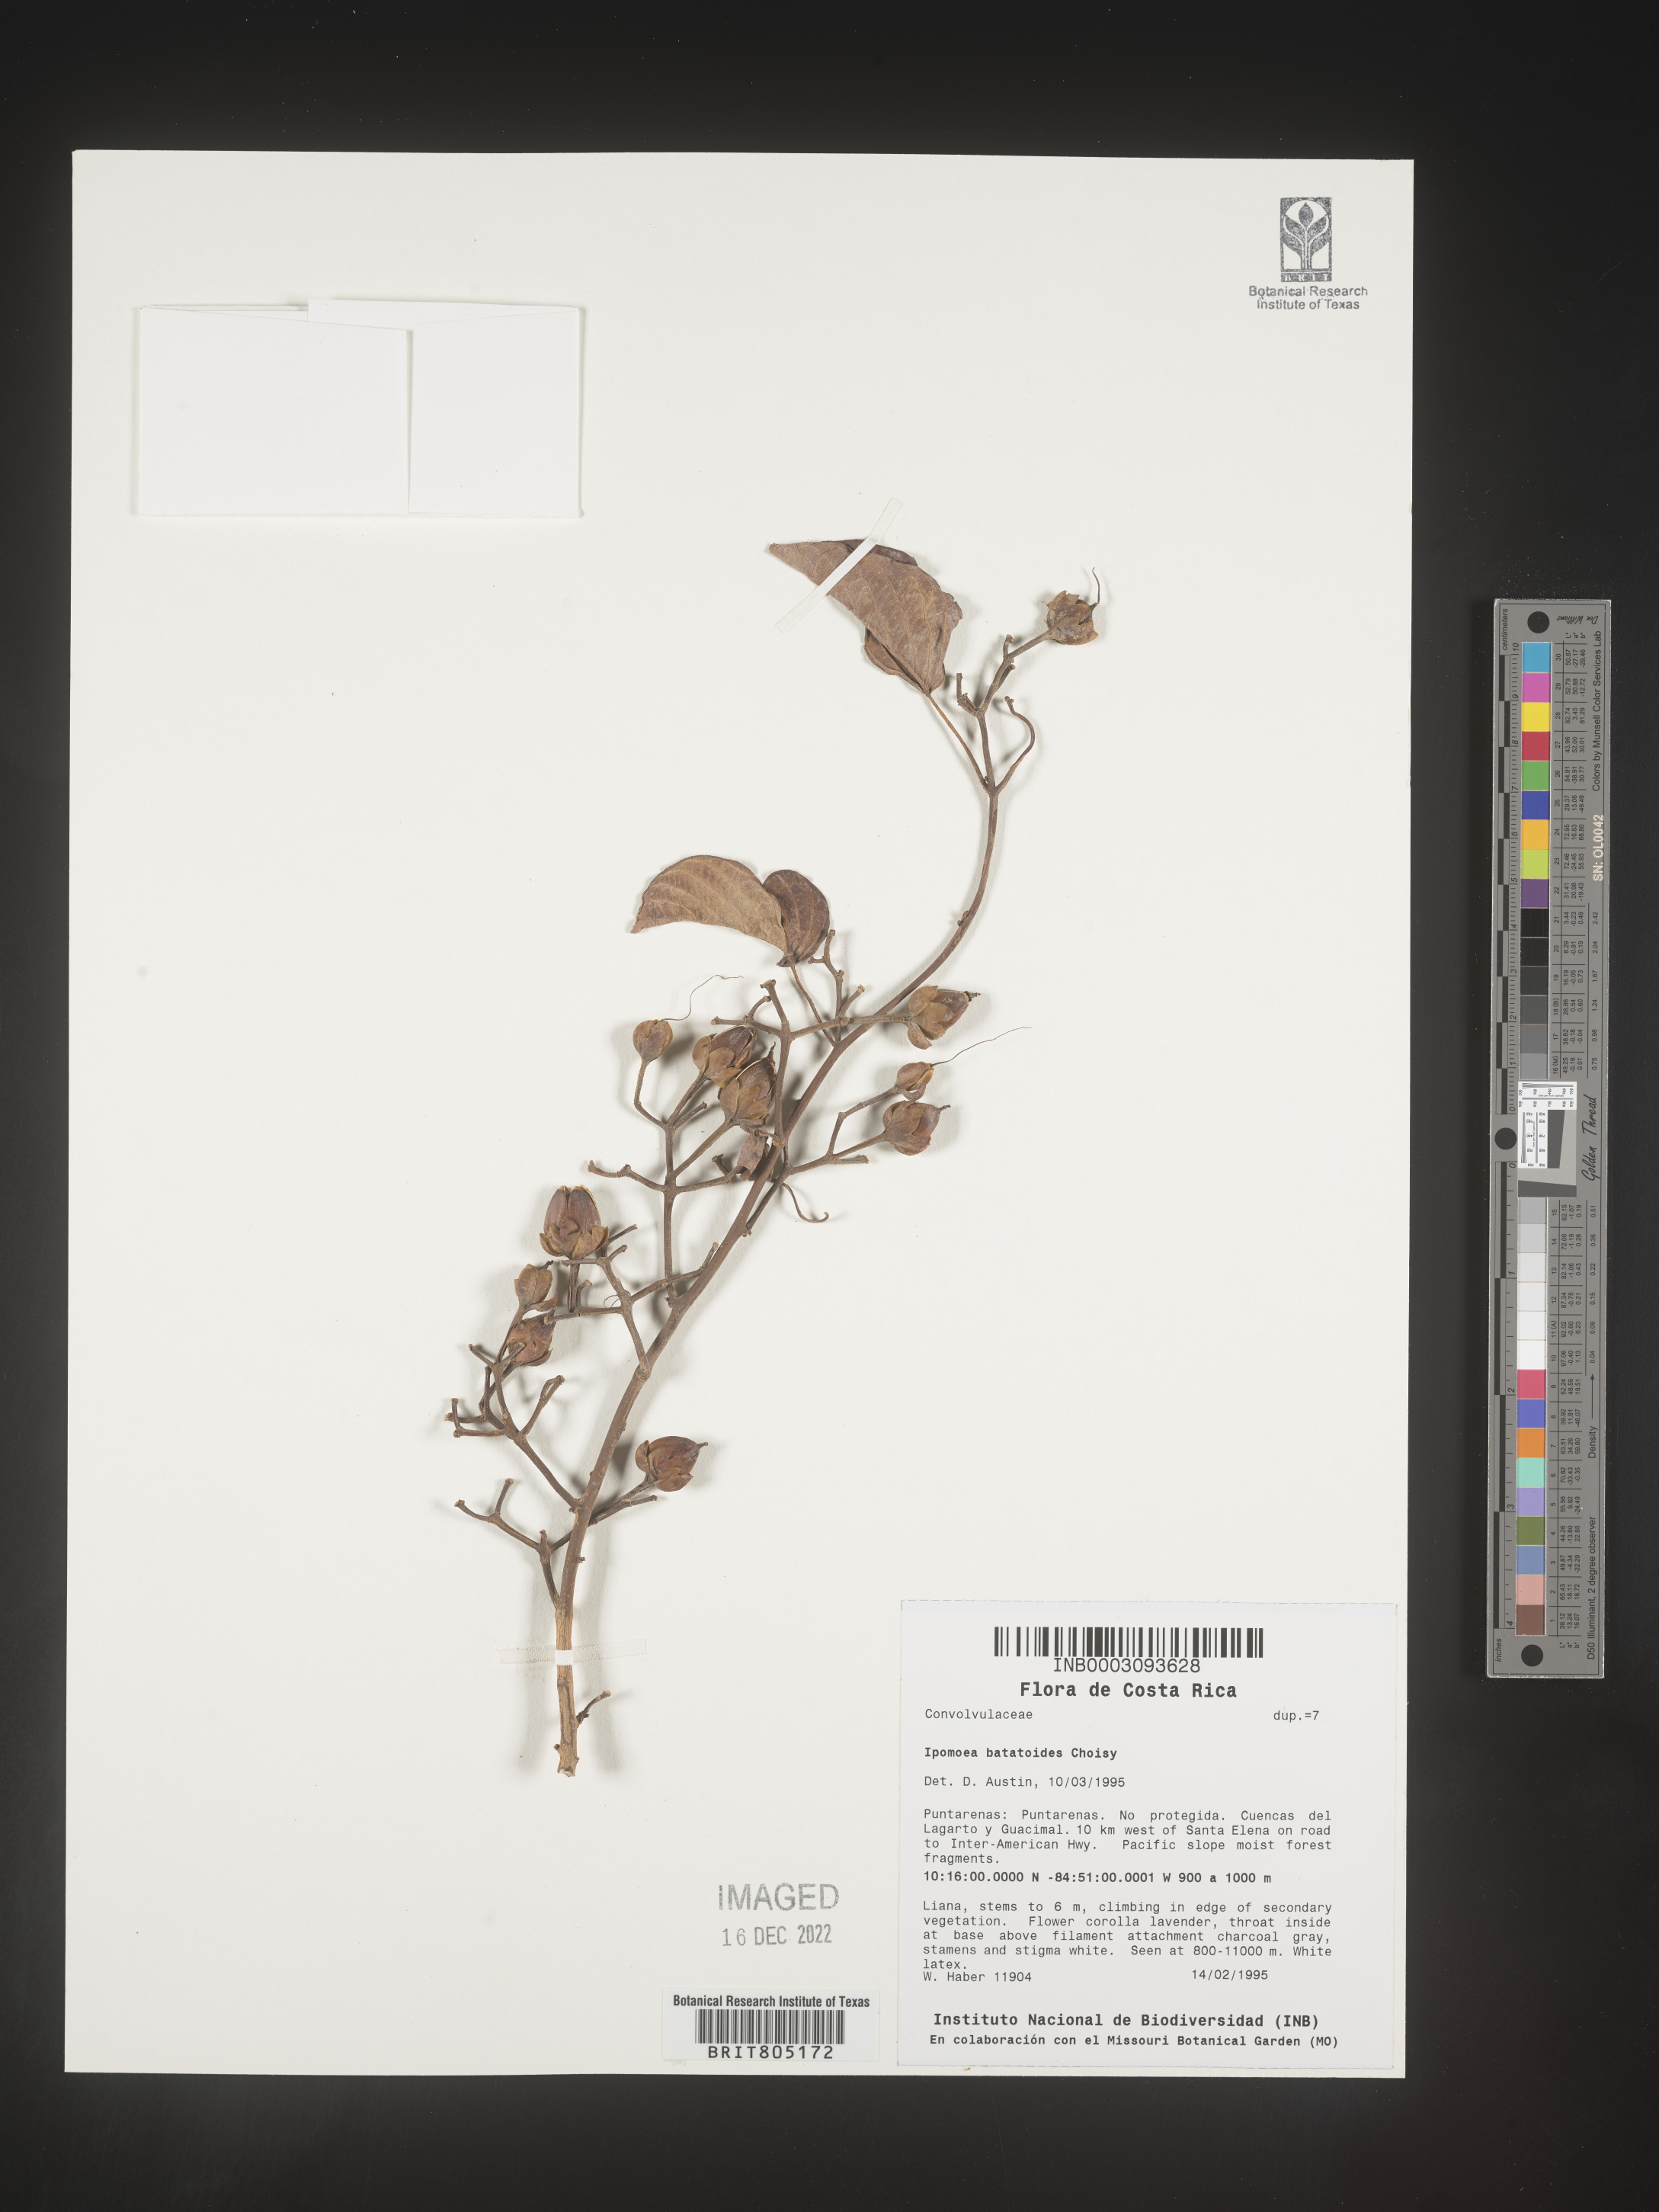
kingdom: Plantae
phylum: Tracheophyta
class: Magnoliopsida
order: Solanales
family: Convolvulaceae
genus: Ipomoea
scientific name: Ipomoea
